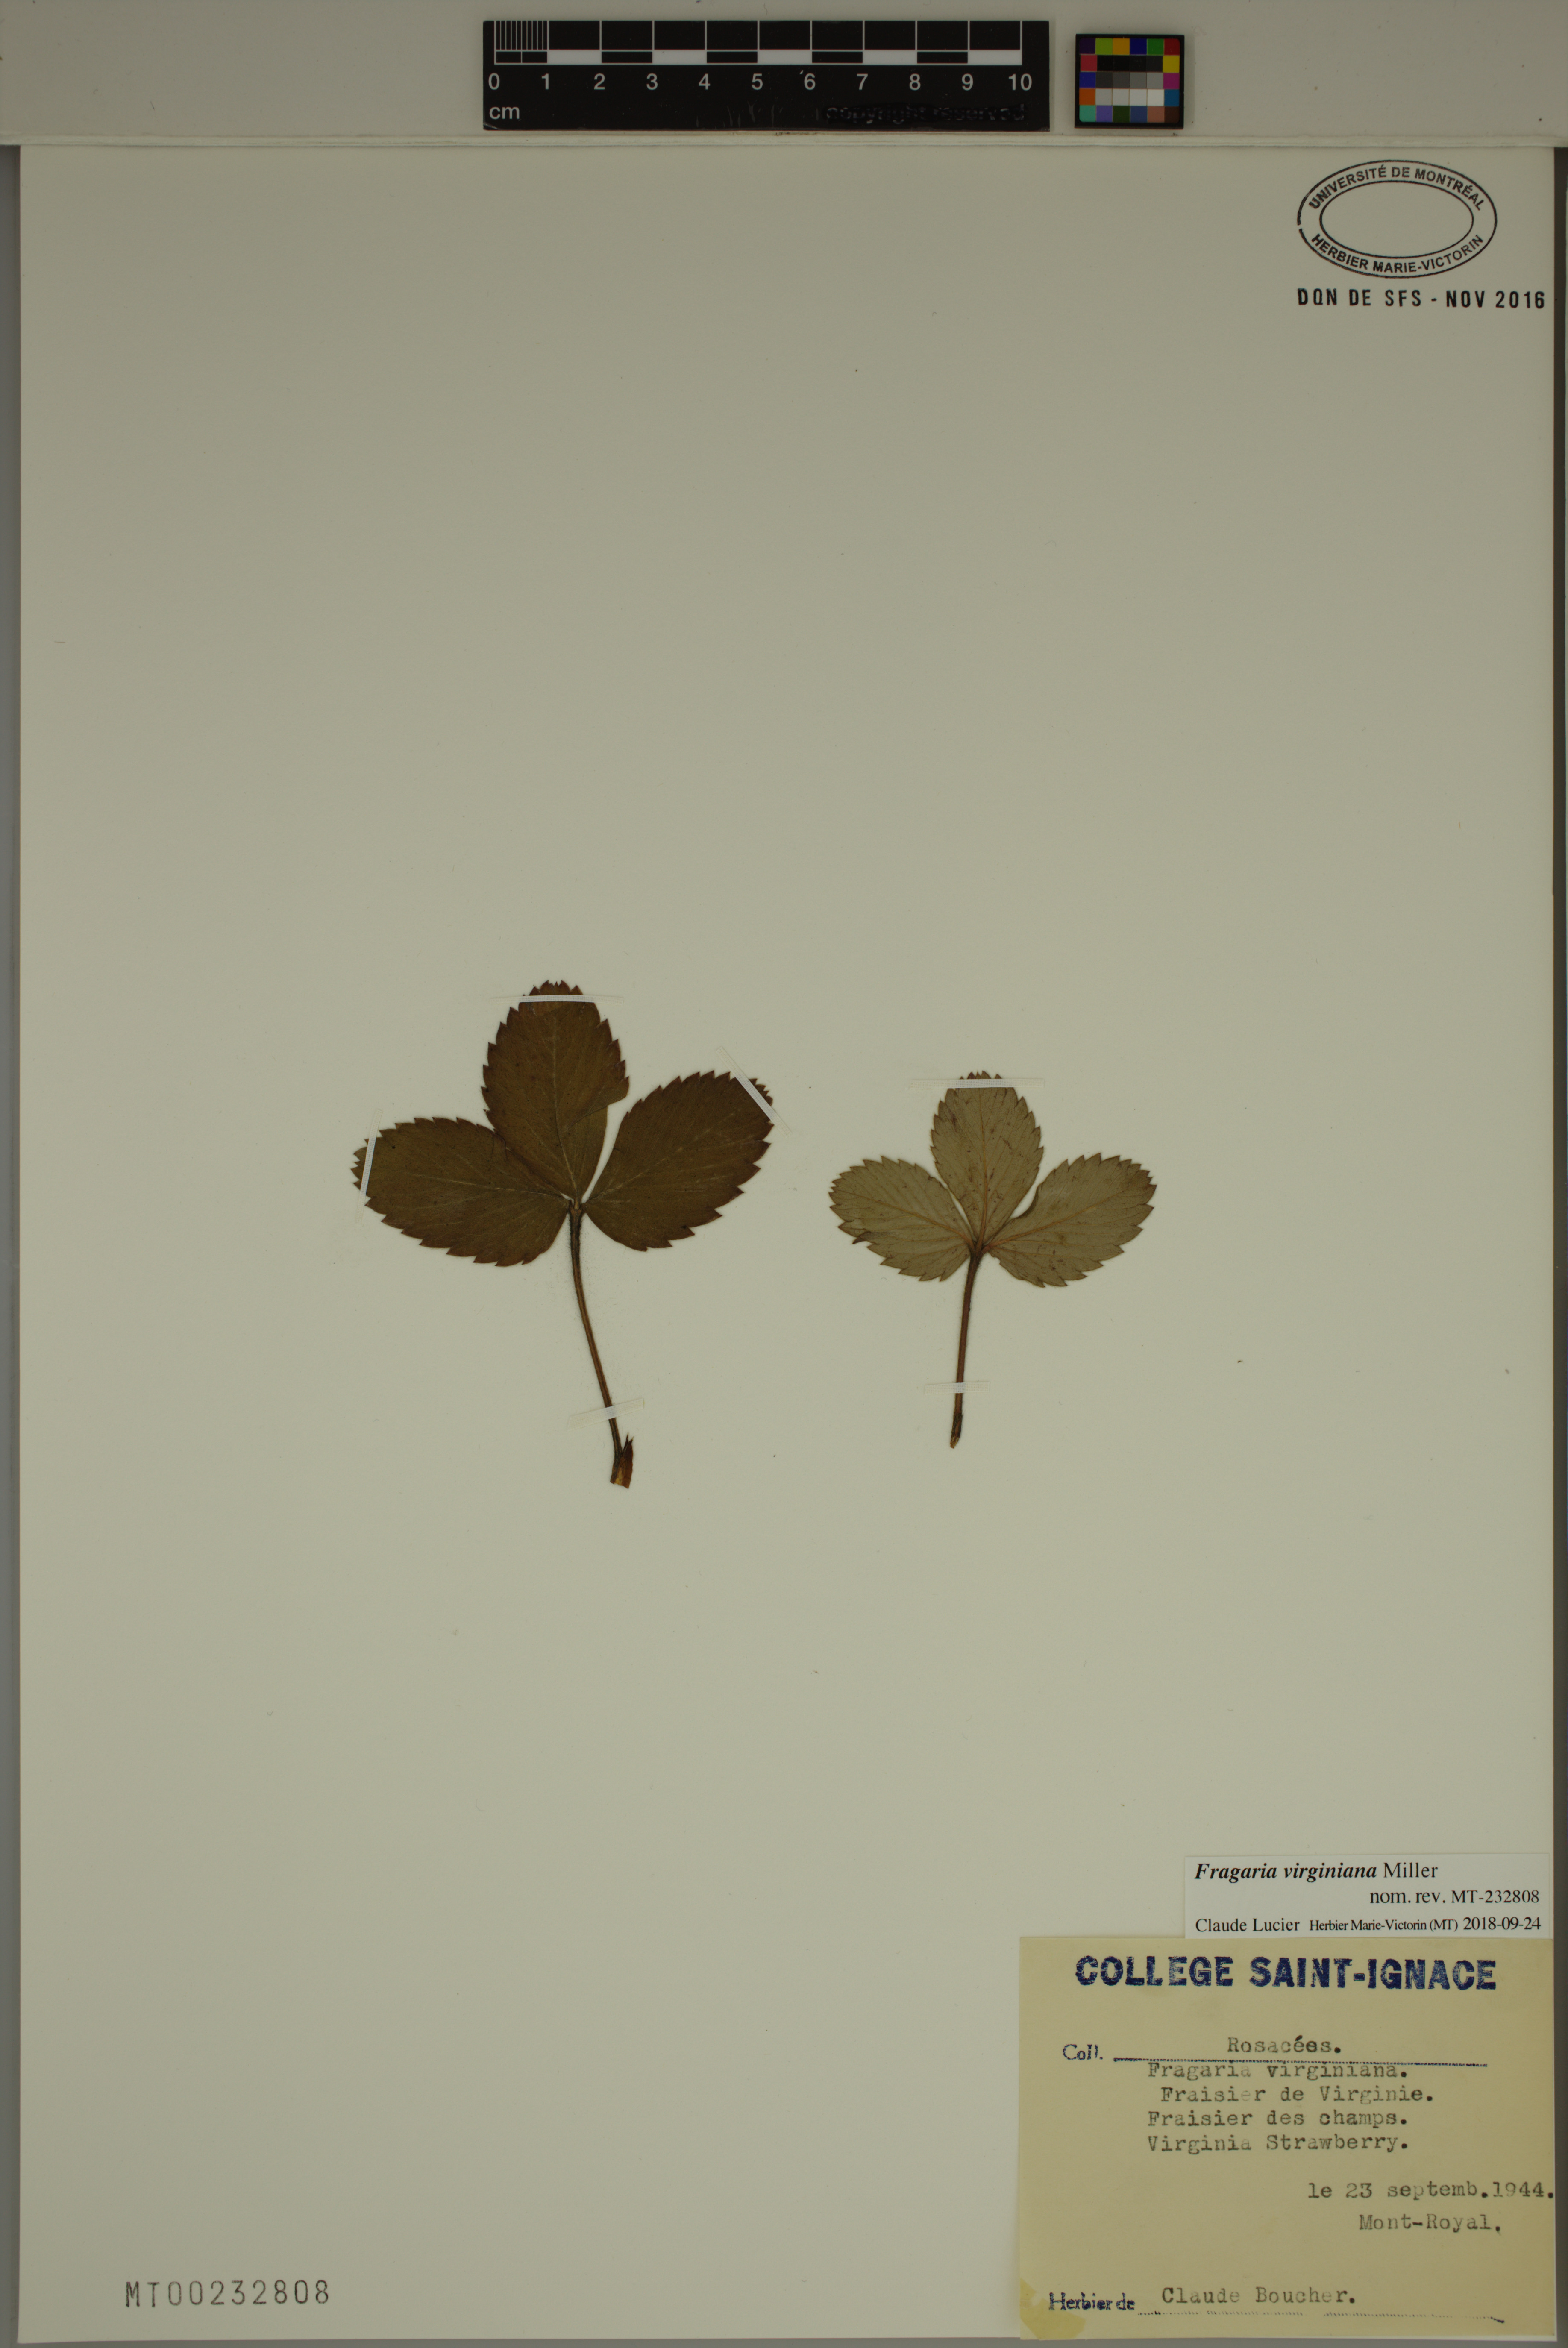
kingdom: Plantae
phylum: Tracheophyta
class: Magnoliopsida
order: Rosales
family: Rosaceae
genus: Fragaria
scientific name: Fragaria virginiana
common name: Thickleaved wild strawberry
